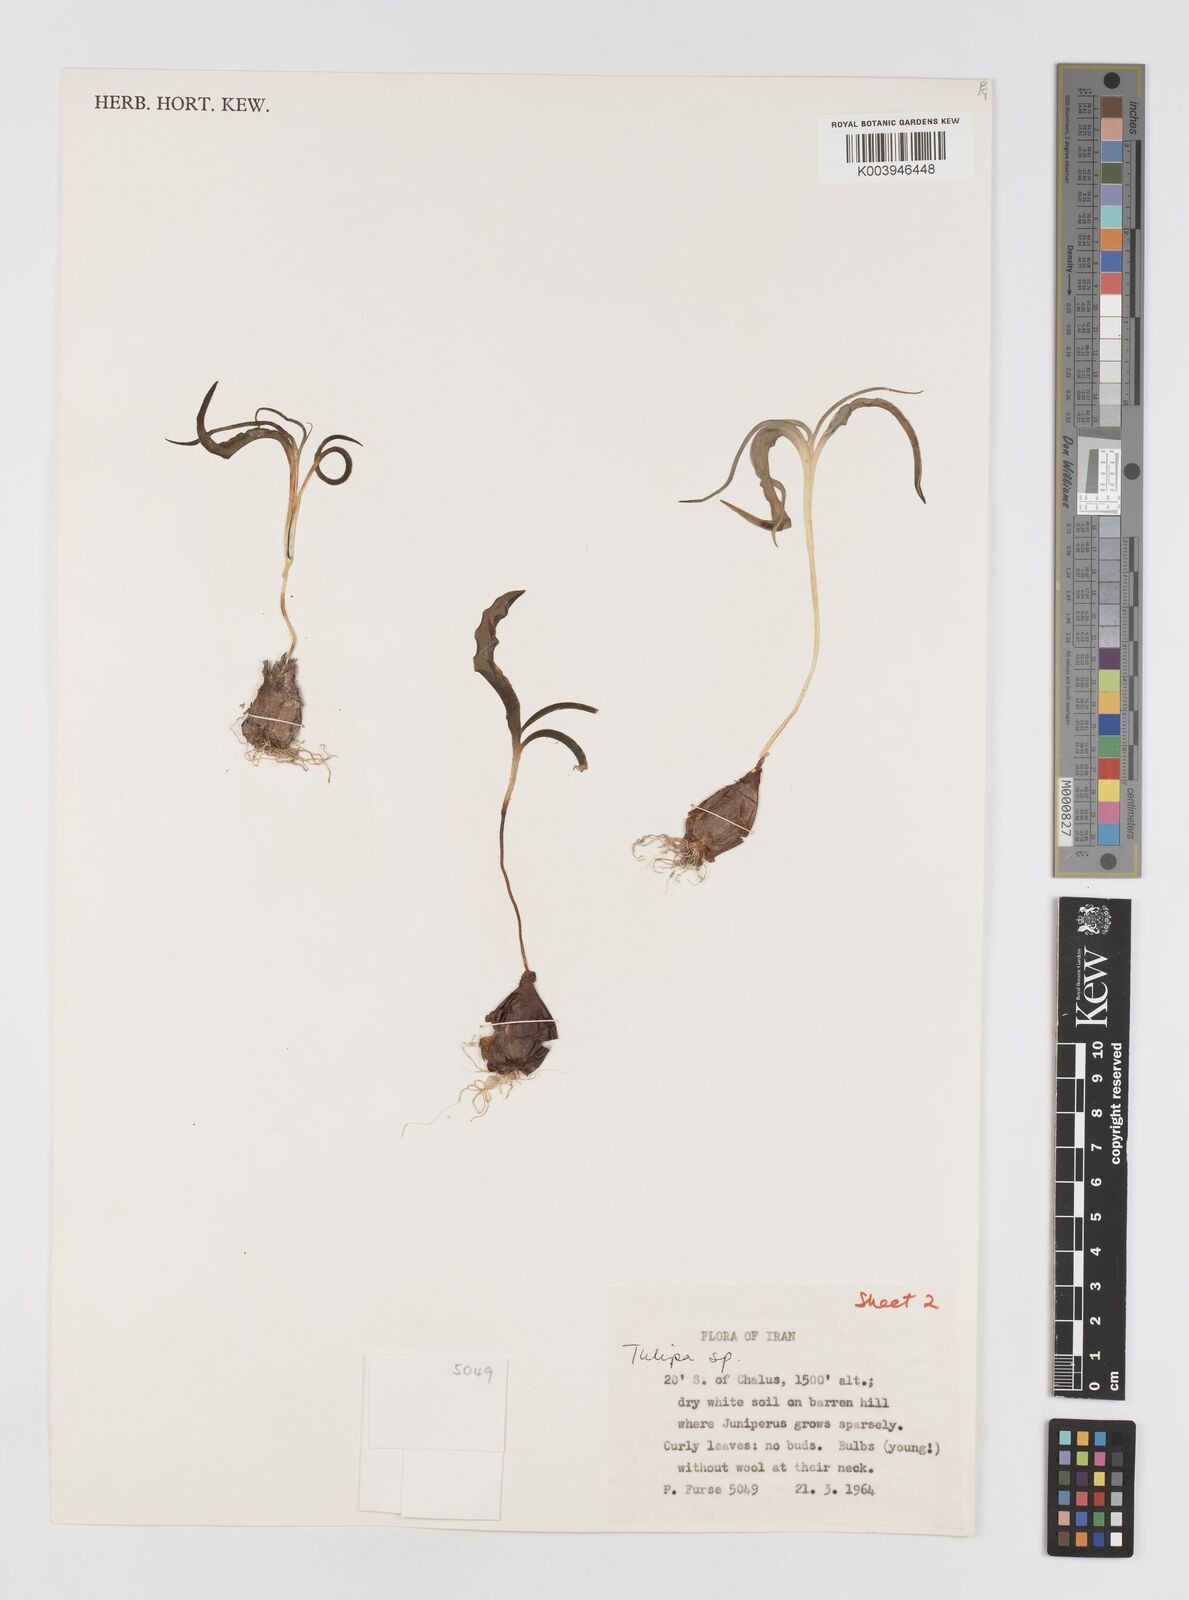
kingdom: Plantae
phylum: Tracheophyta
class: Liliopsida
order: Liliales
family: Liliaceae
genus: Tulipa
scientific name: Tulipa
